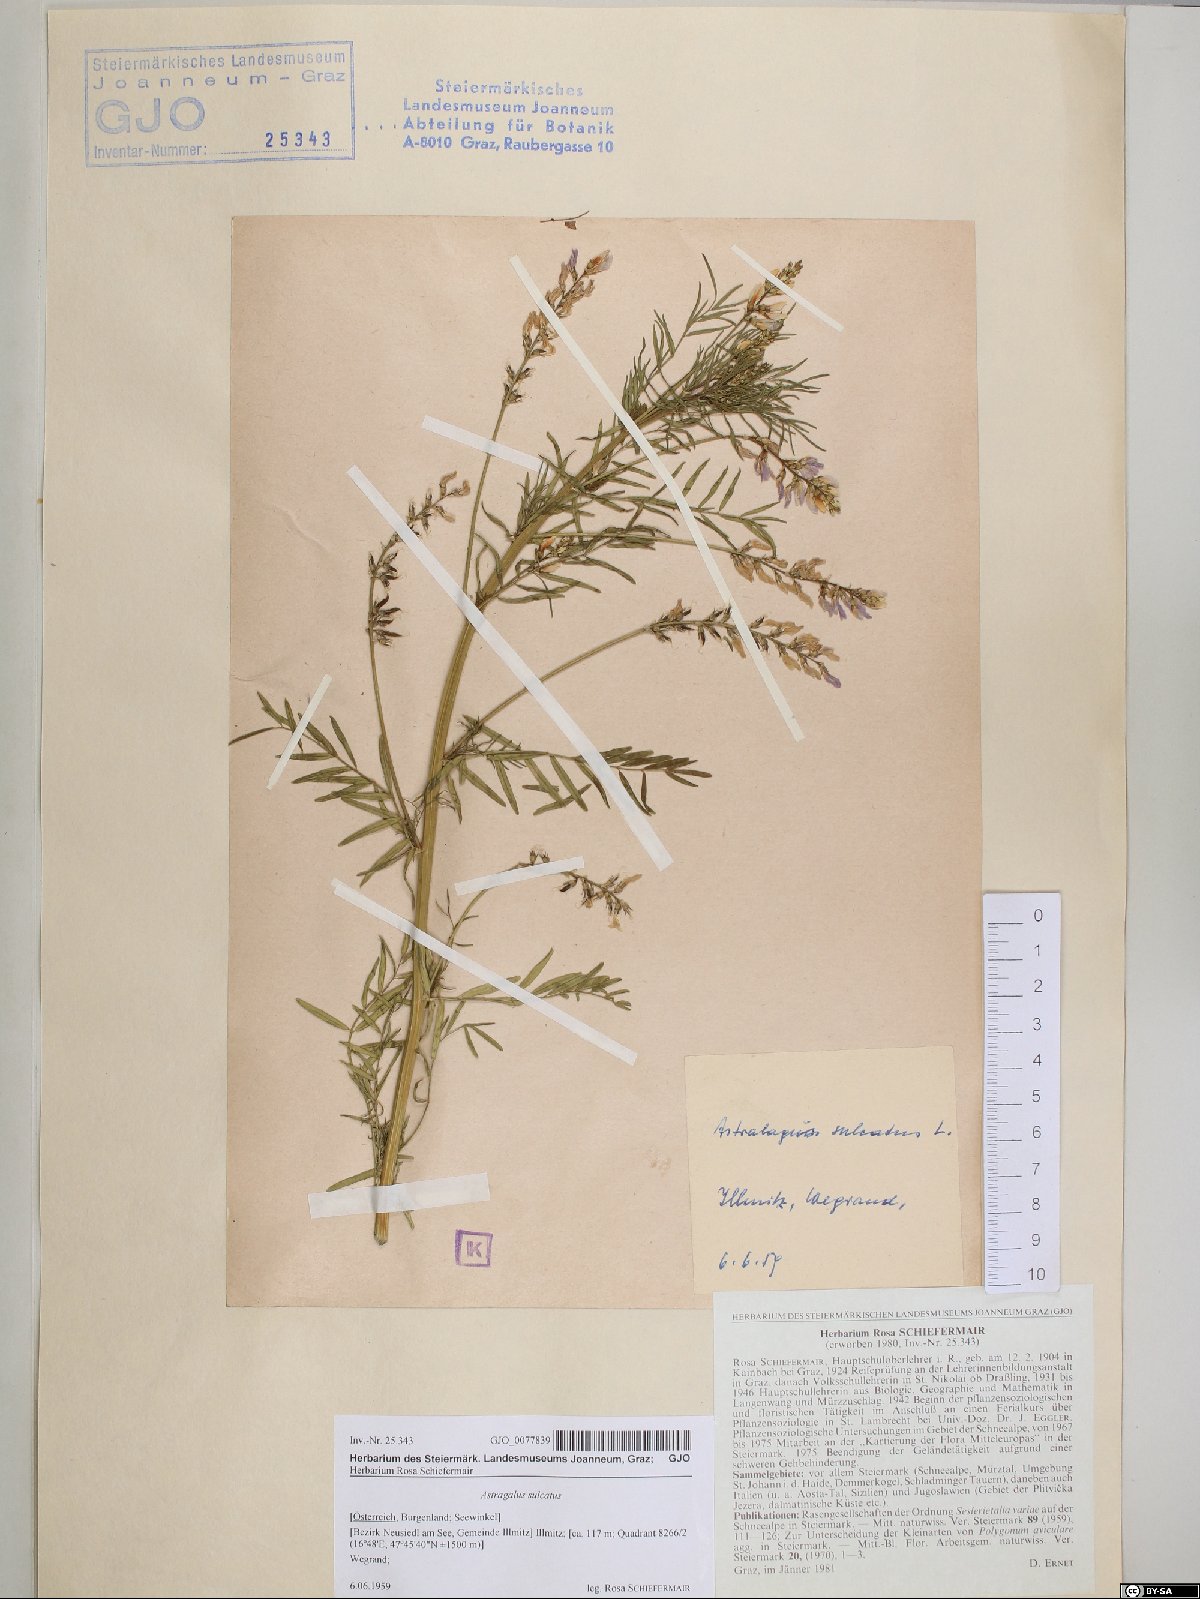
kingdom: Plantae
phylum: Tracheophyta
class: Magnoliopsida
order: Fabales
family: Fabaceae
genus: Astragalus
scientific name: Astragalus sulcatus
